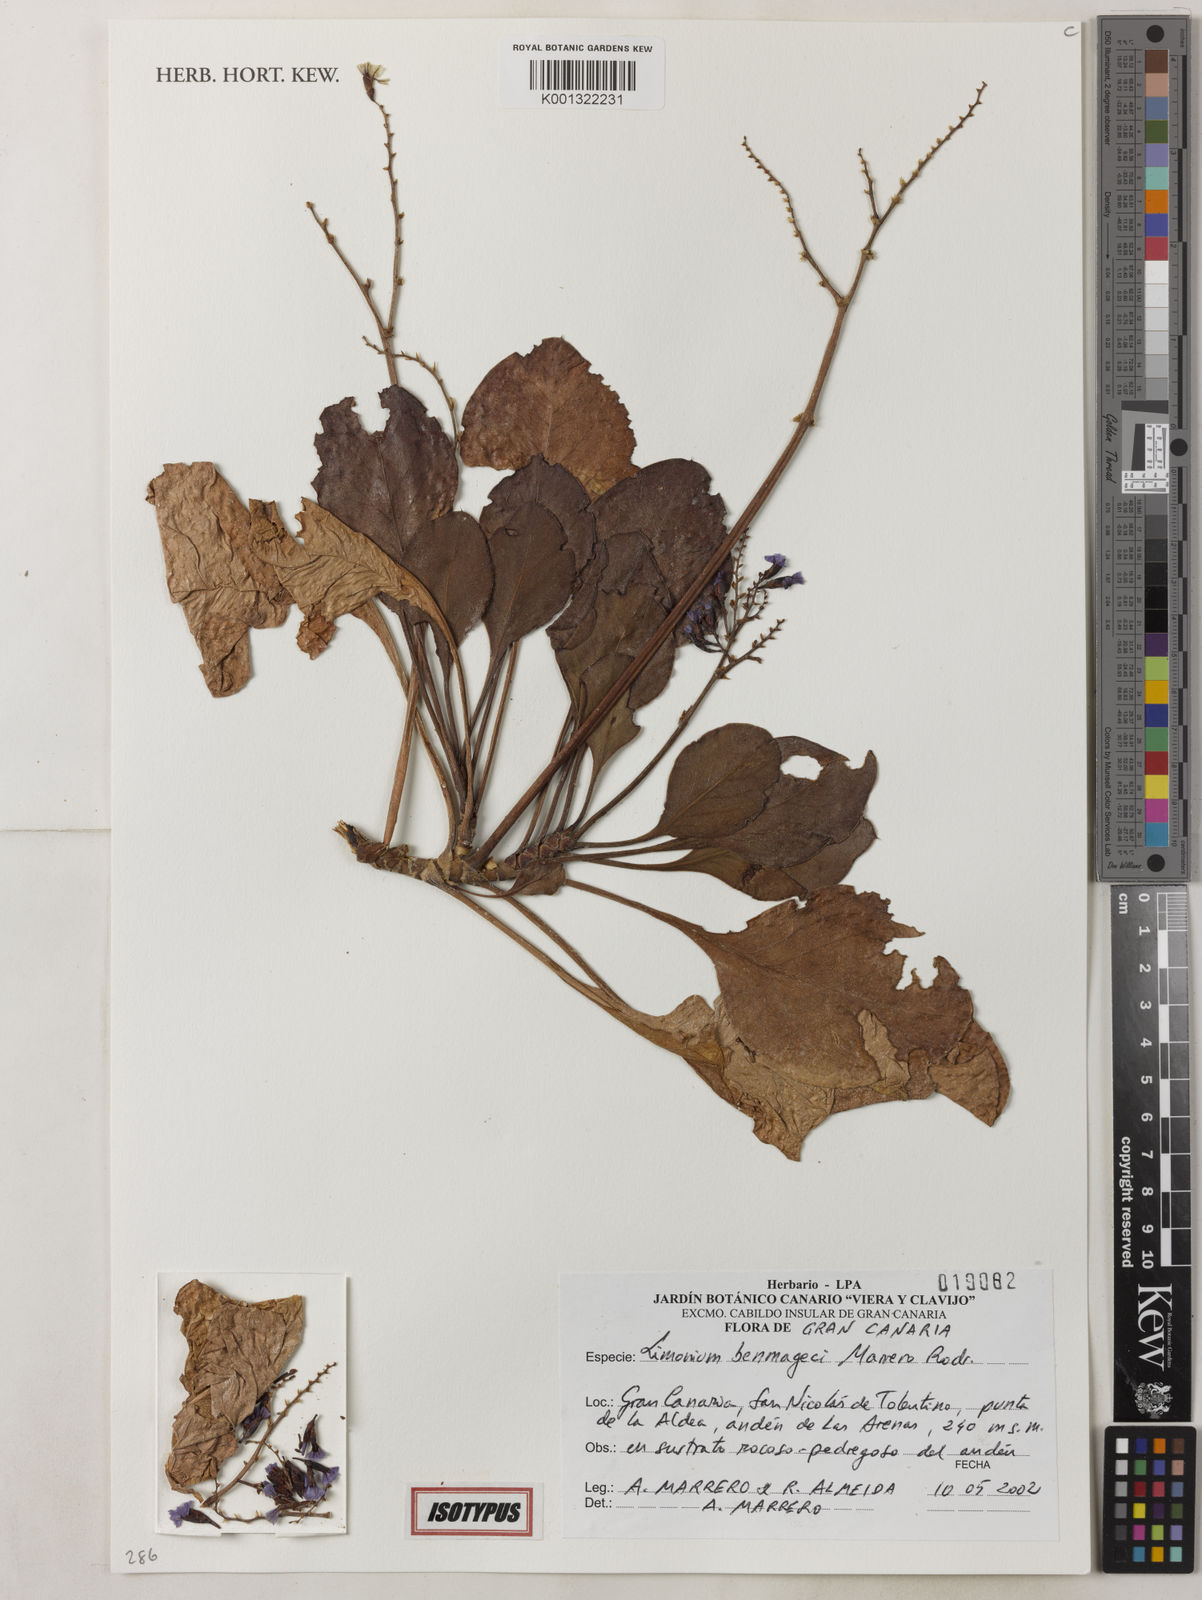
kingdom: Plantae
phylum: Tracheophyta
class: Magnoliopsida
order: Caryophyllales
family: Plumbaginaceae
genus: Limonium
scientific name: Limonium benmageci
